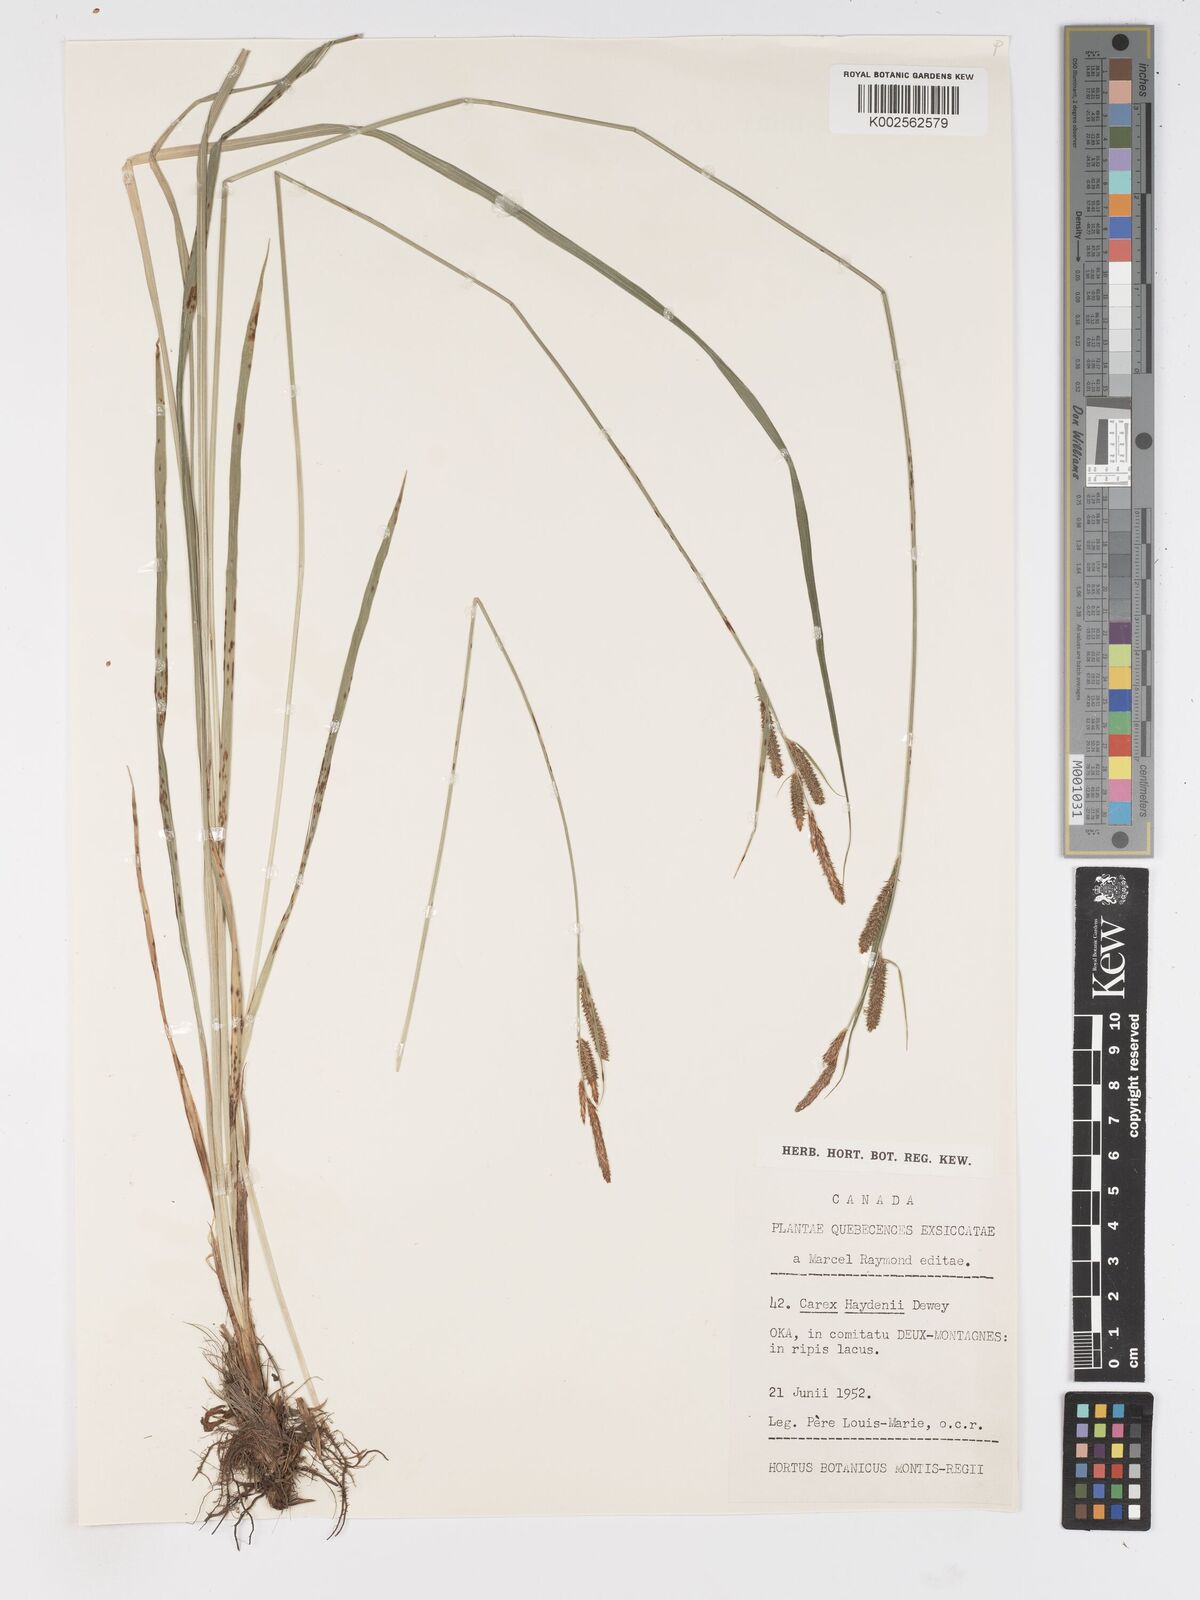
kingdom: Plantae
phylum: Tracheophyta
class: Liliopsida
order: Poales
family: Cyperaceae
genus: Carex
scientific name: Carex haydenii
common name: Hayden's sedge
